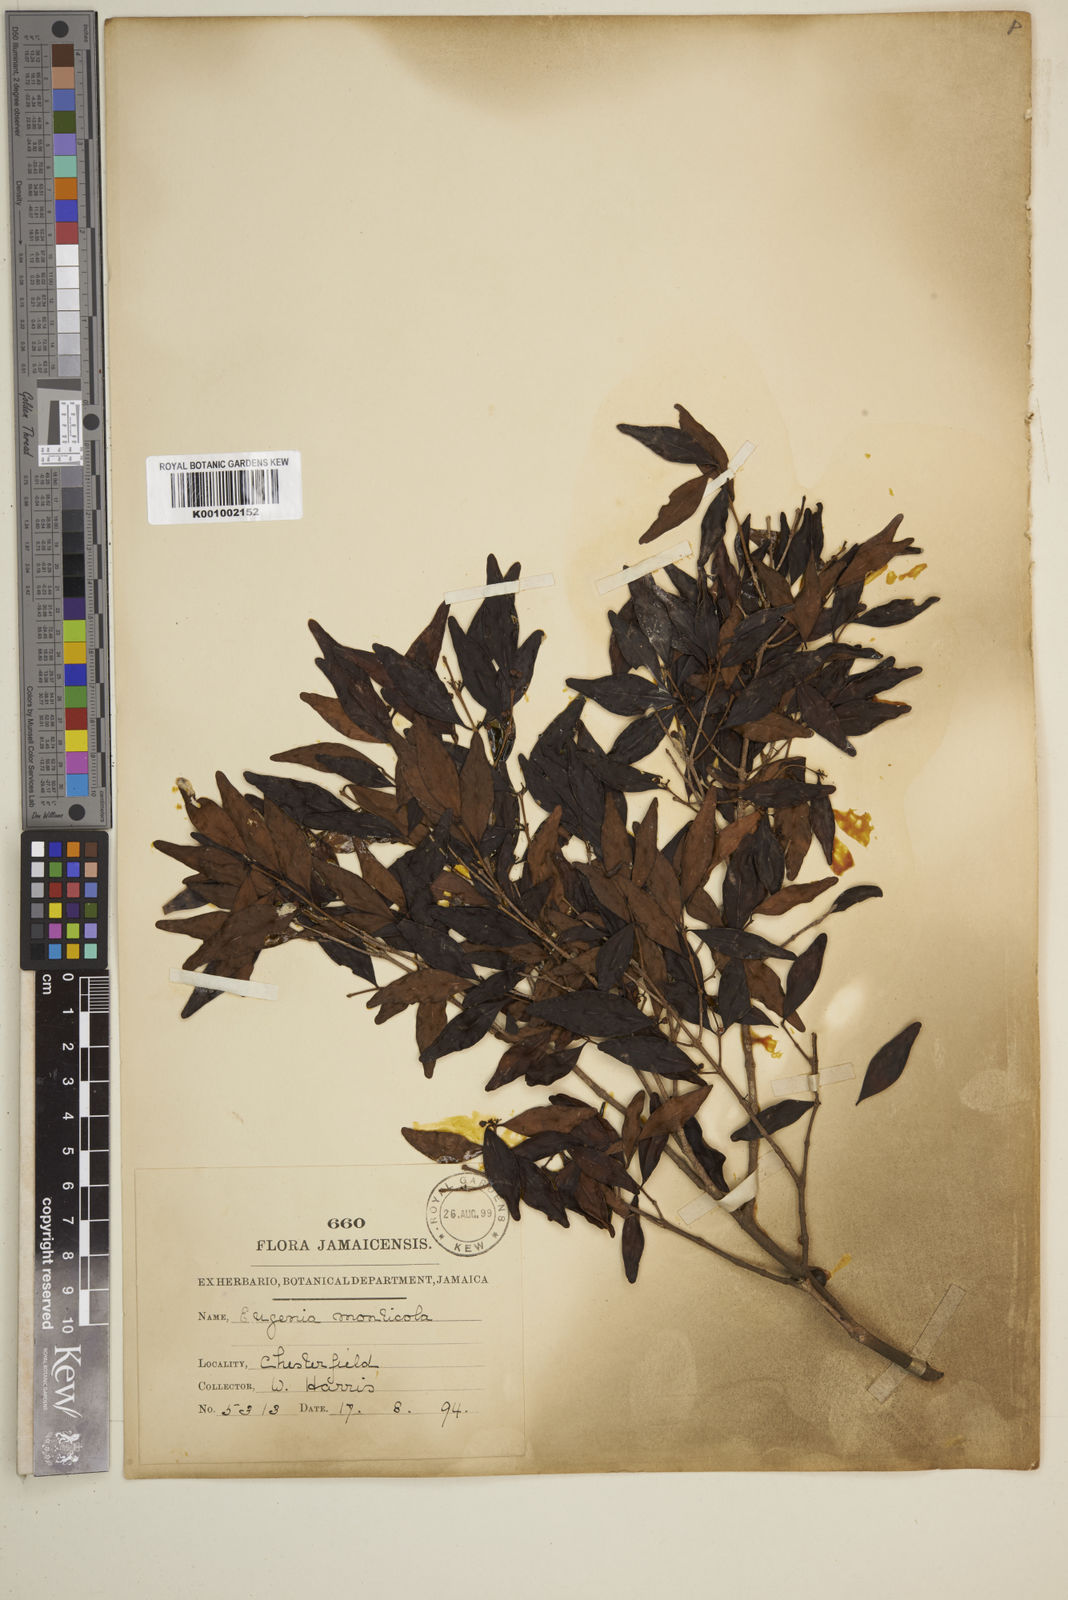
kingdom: Plantae
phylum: Tracheophyta
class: Magnoliopsida
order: Myrtales
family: Myrtaceae
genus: Eugenia
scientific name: Eugenia monticola
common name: Birds berry
